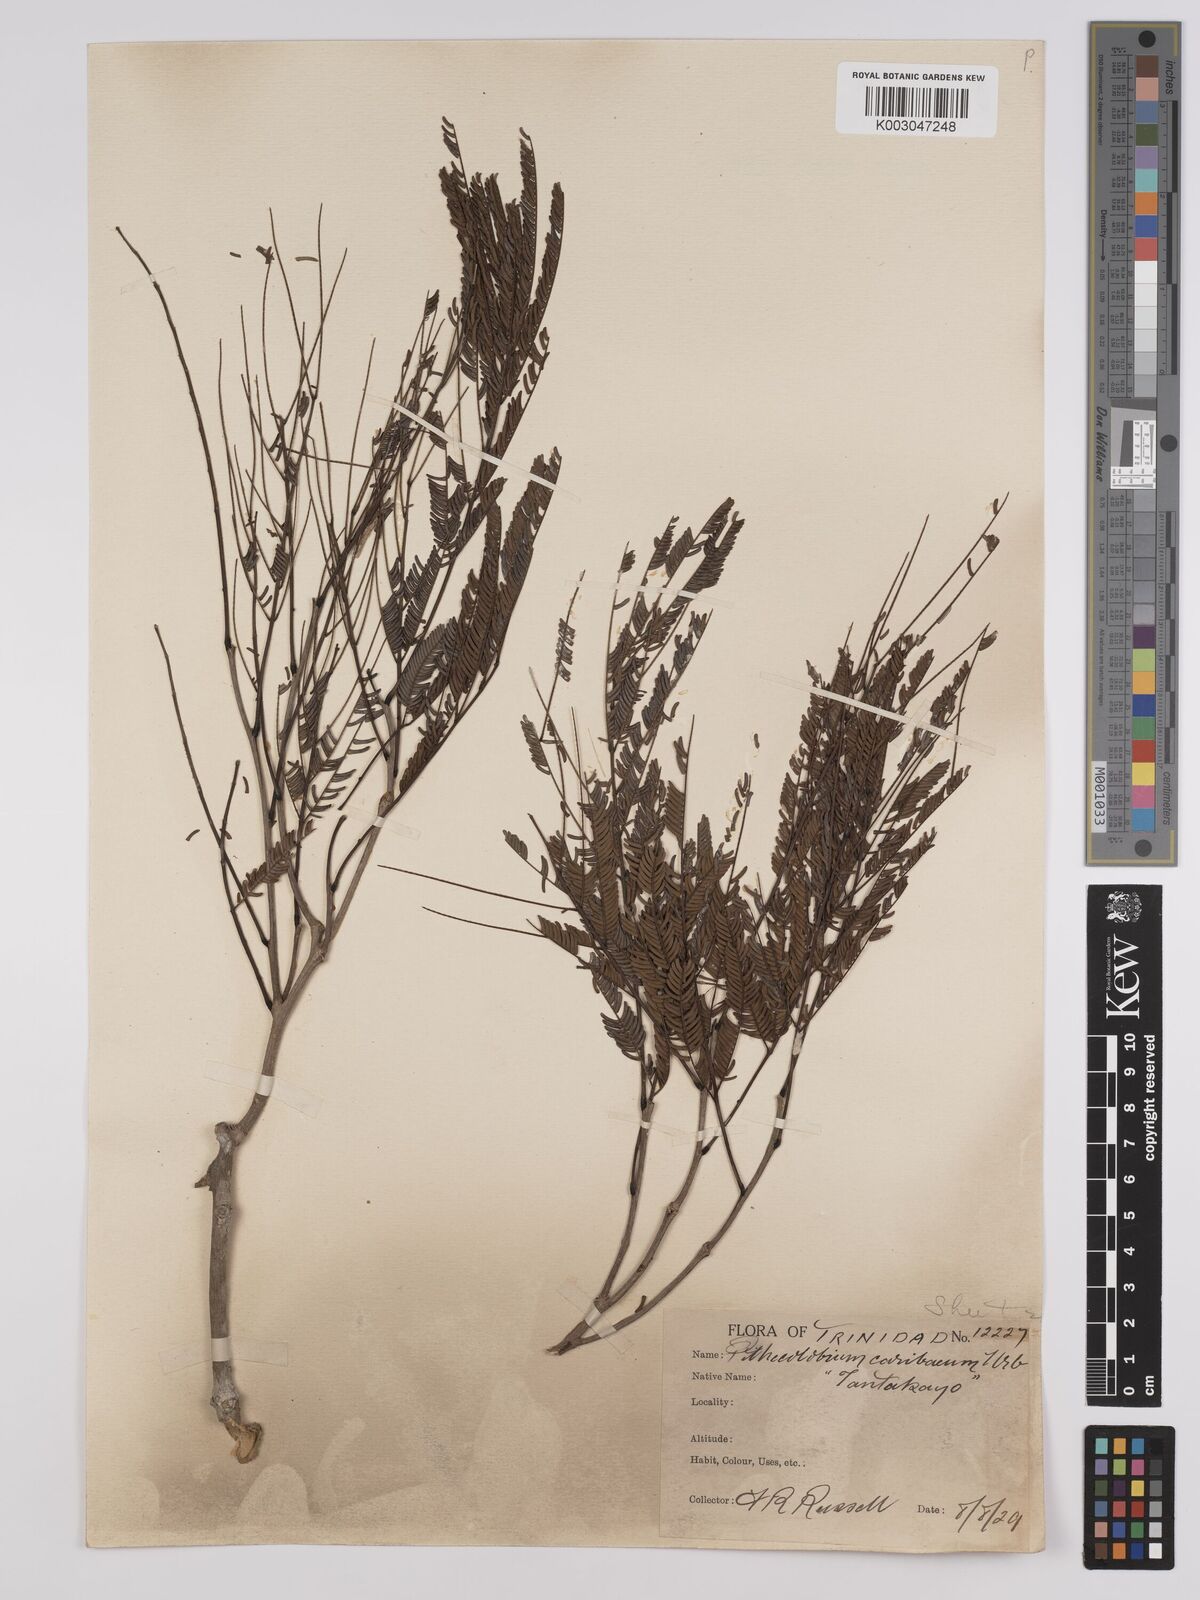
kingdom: Plantae
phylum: Tracheophyta
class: Magnoliopsida
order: Fabales
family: Fabaceae
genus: Albizia
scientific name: Albizia niopoides
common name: Silk tree
